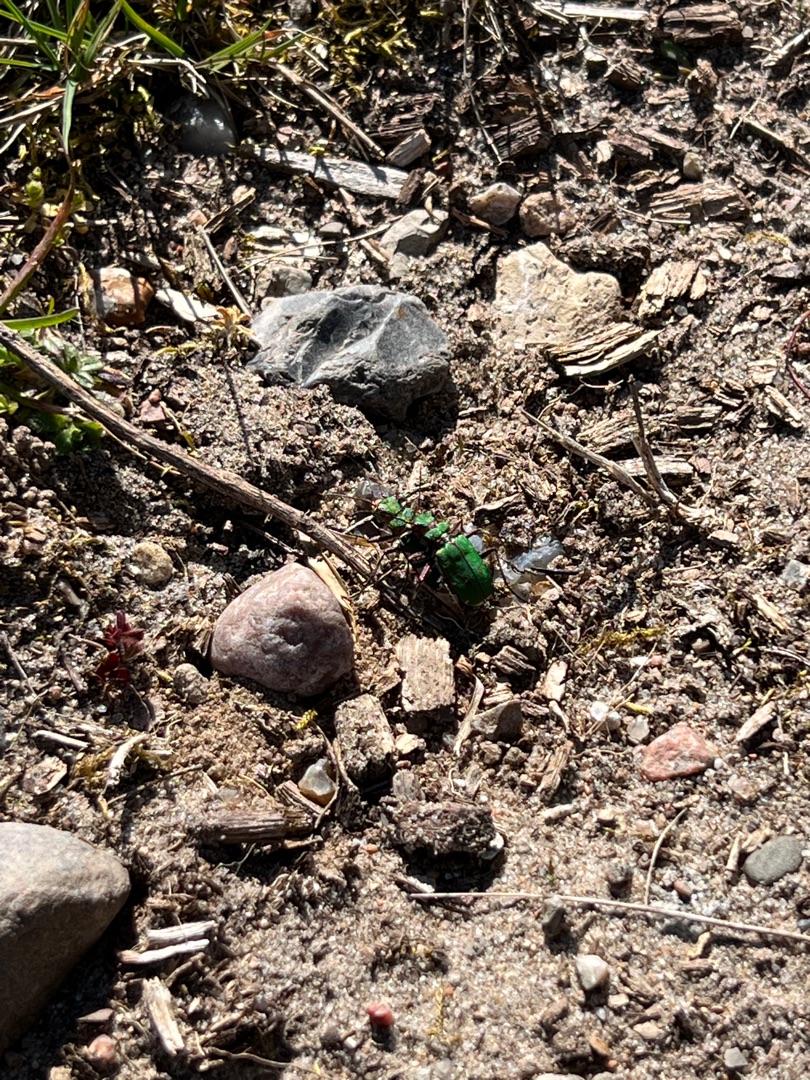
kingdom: Animalia
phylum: Arthropoda
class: Insecta
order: Coleoptera
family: Carabidae
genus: Cicindela
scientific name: Cicindela campestris
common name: Grøn sandspringer
